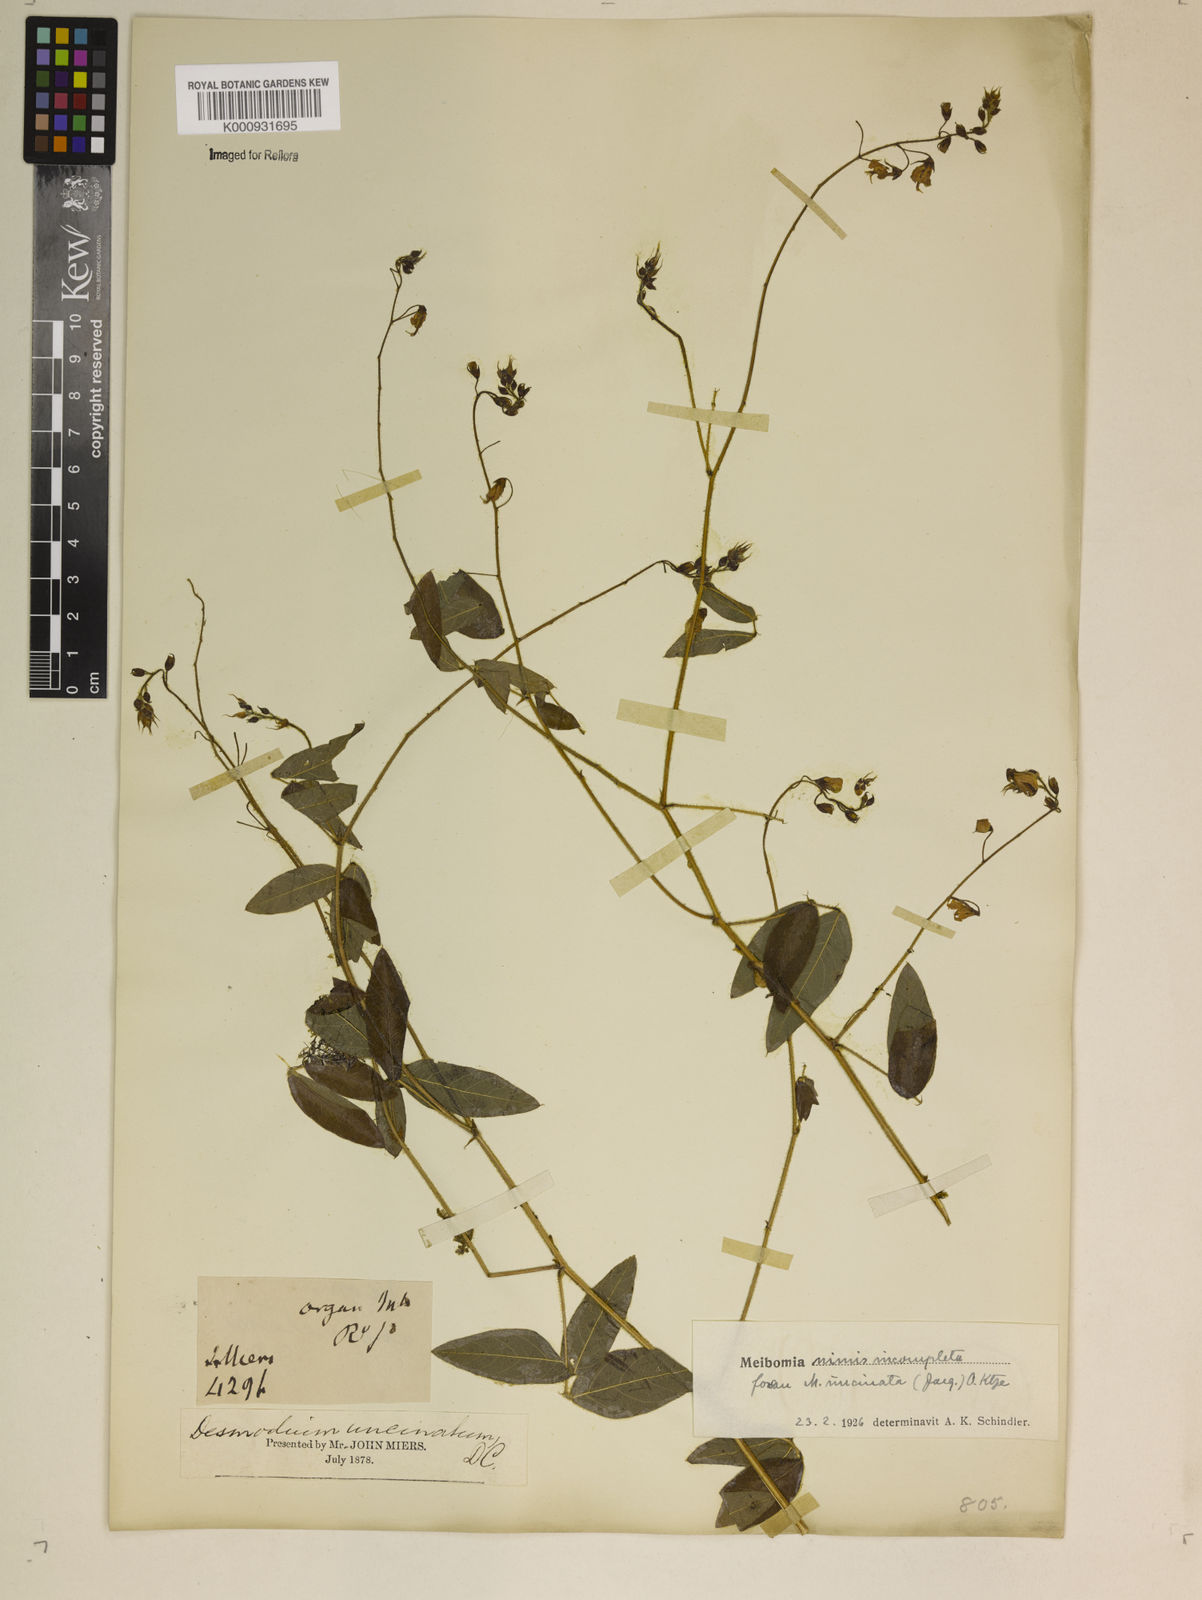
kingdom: Plantae
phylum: Tracheophyta
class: Magnoliopsida
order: Fabales
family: Fabaceae
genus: Desmodium
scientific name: Desmodium uncinatum
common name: Silverleaf desmodium
